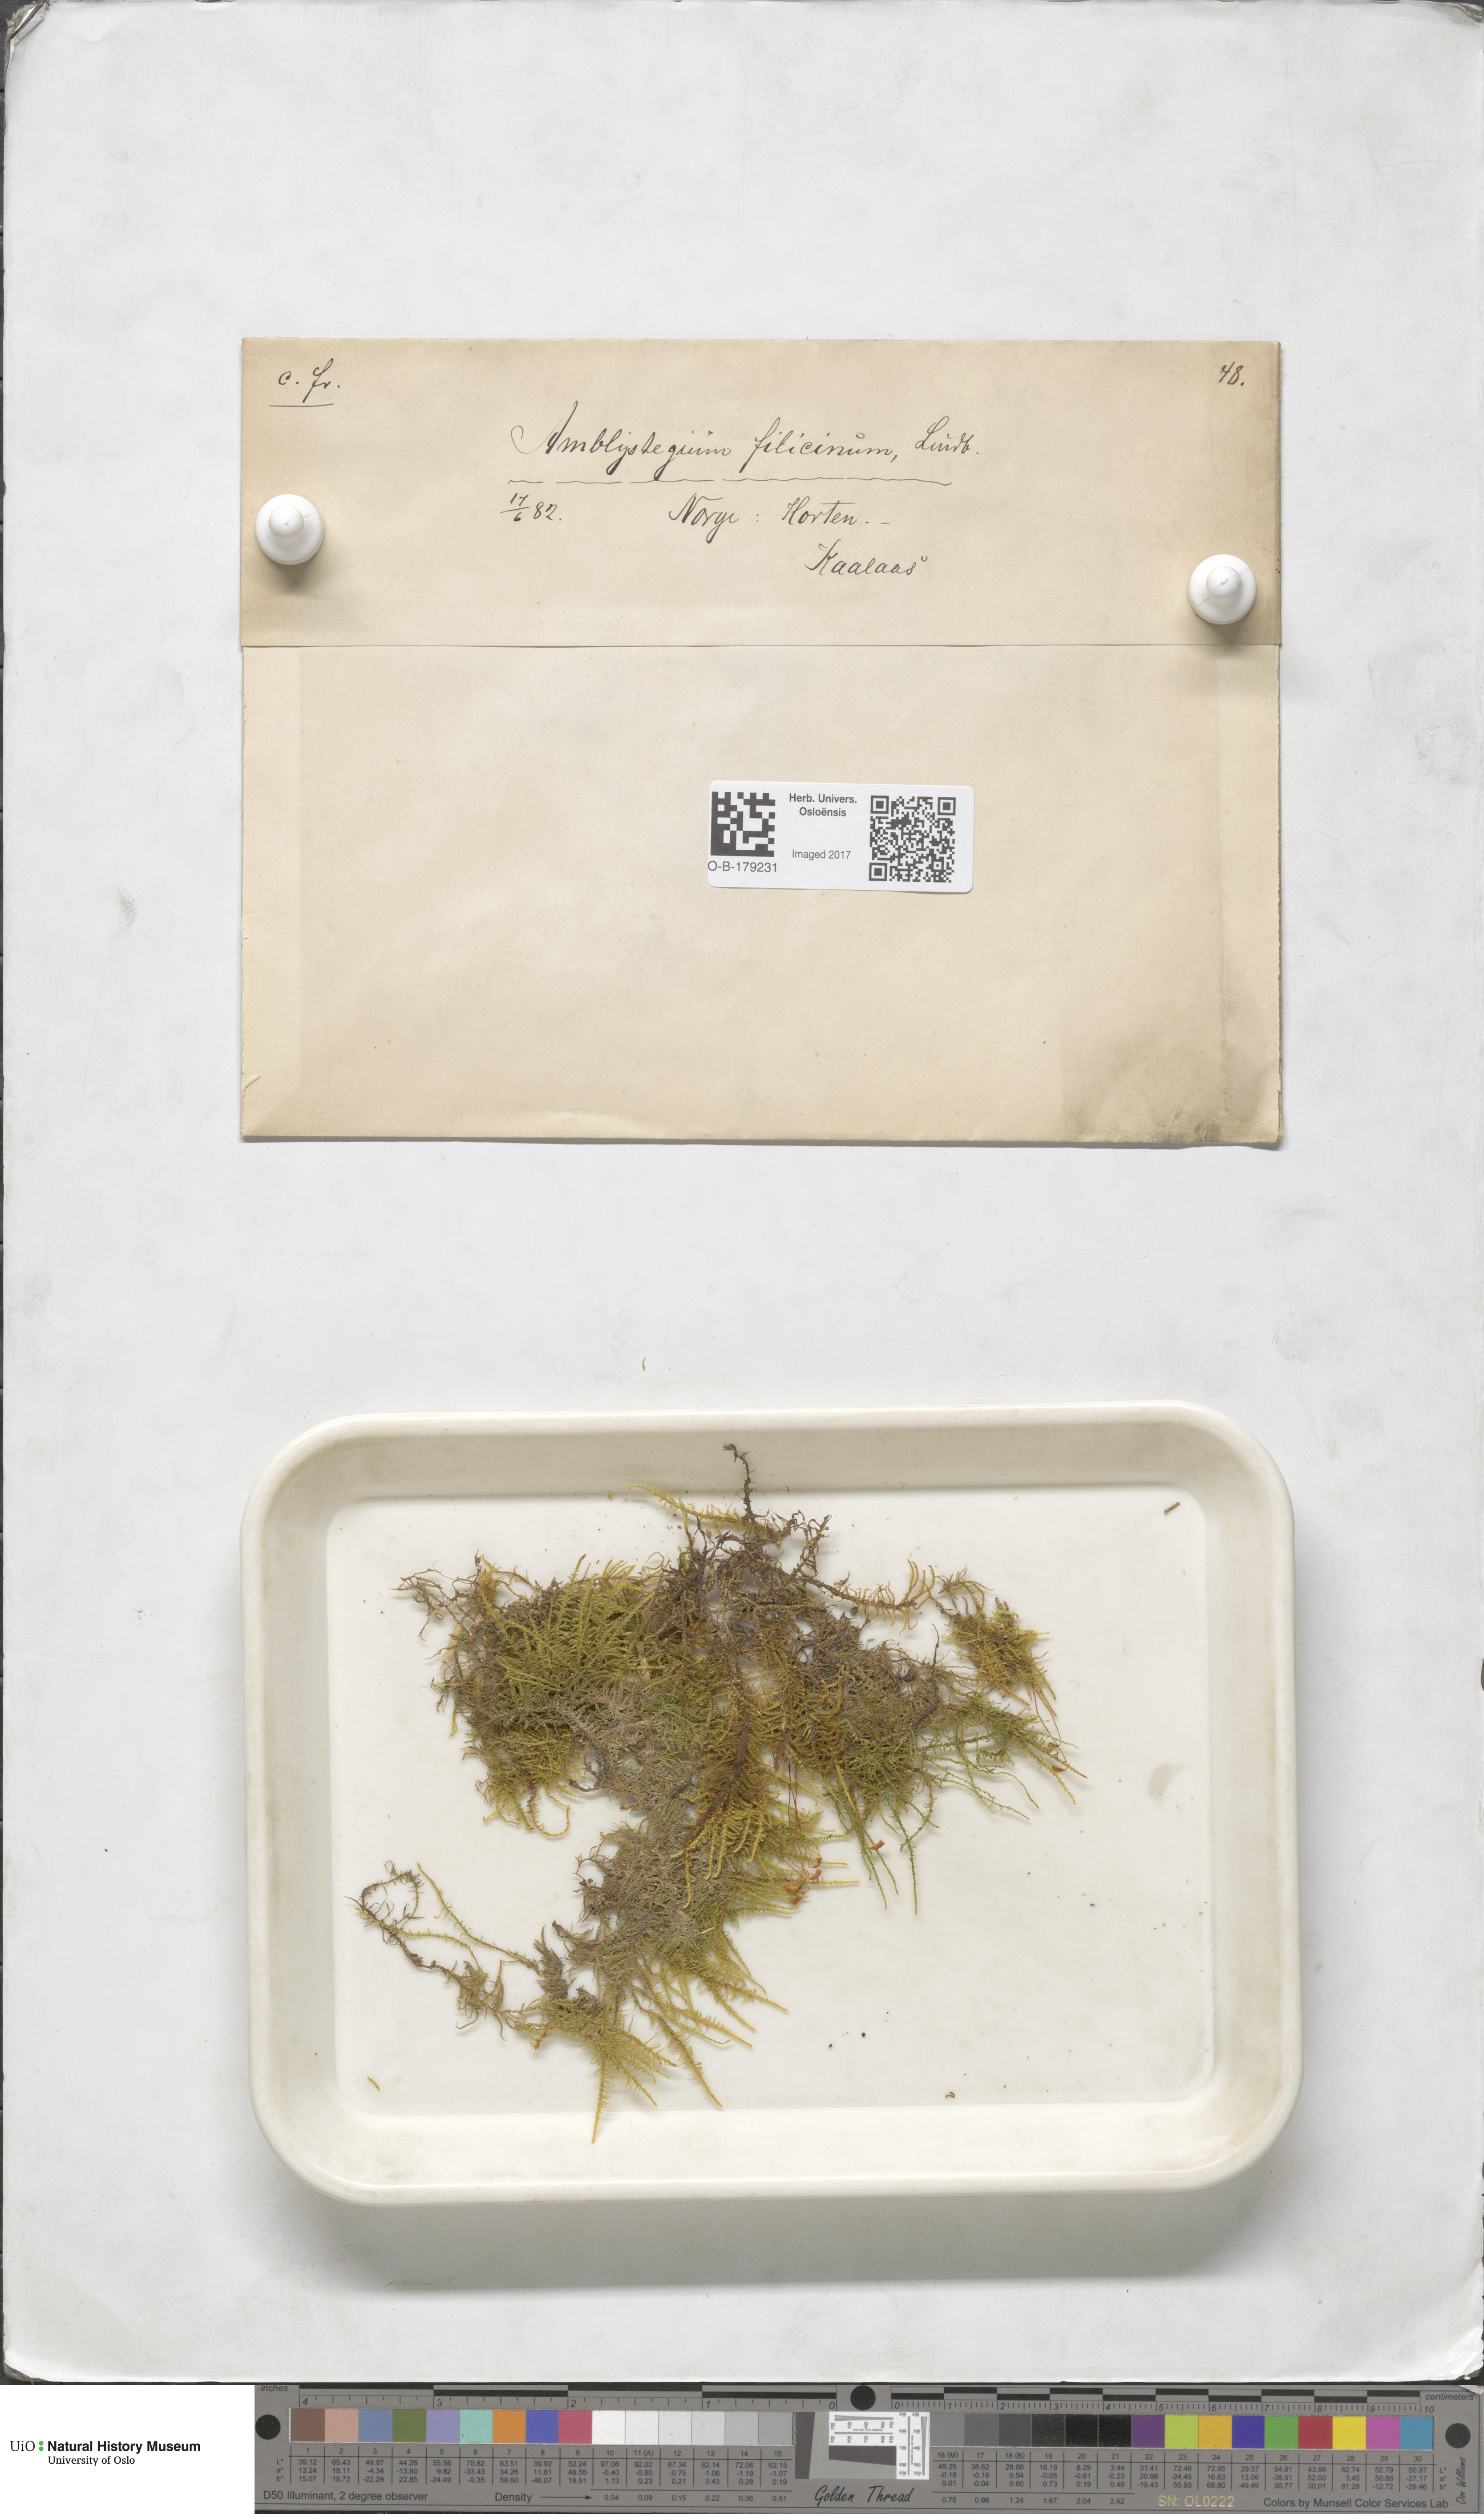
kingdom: Plantae
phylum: Bryophyta
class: Bryopsida
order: Hypnales
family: Amblystegiaceae
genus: Cratoneuron
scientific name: Cratoneuron filicinum
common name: Fern-leaved hook moss
